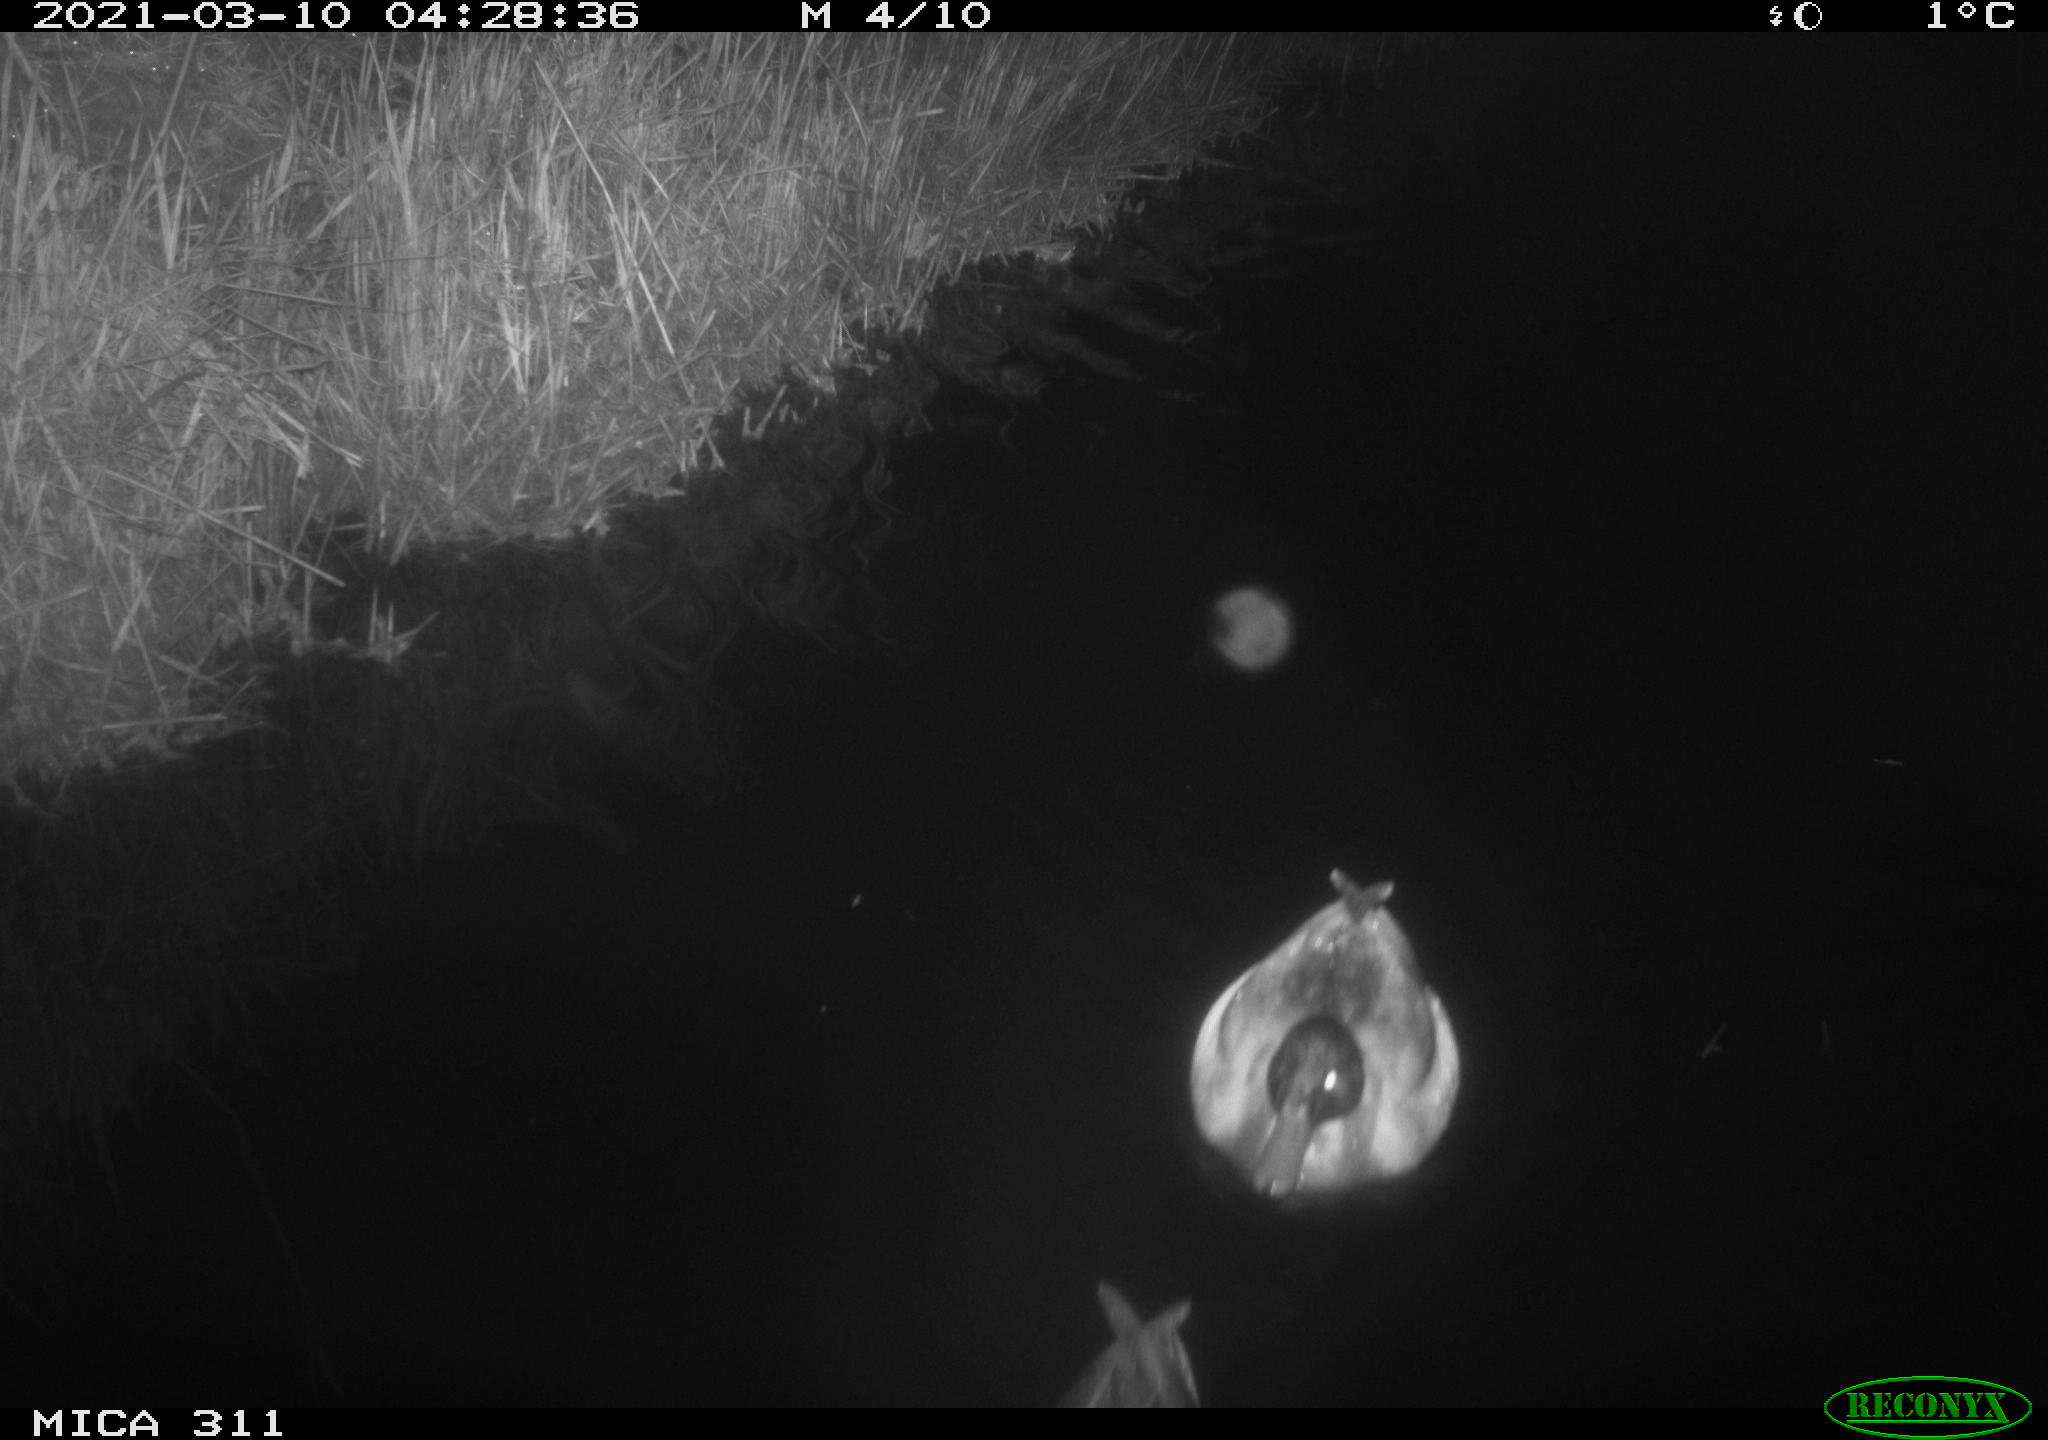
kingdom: Animalia
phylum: Chordata
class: Aves
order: Anseriformes
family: Anatidae
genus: Anas
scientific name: Anas
